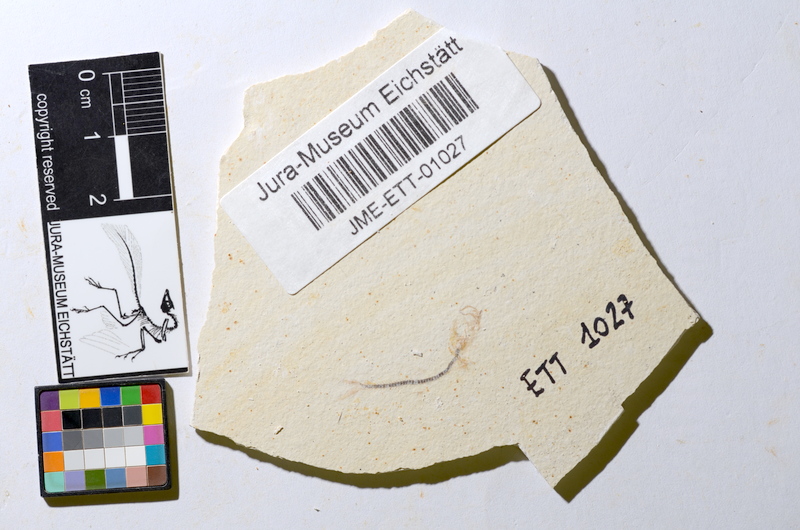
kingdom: Animalia
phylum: Chordata
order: Salmoniformes
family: Orthogonikleithridae
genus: Orthogonikleithrus
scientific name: Orthogonikleithrus hoelli
